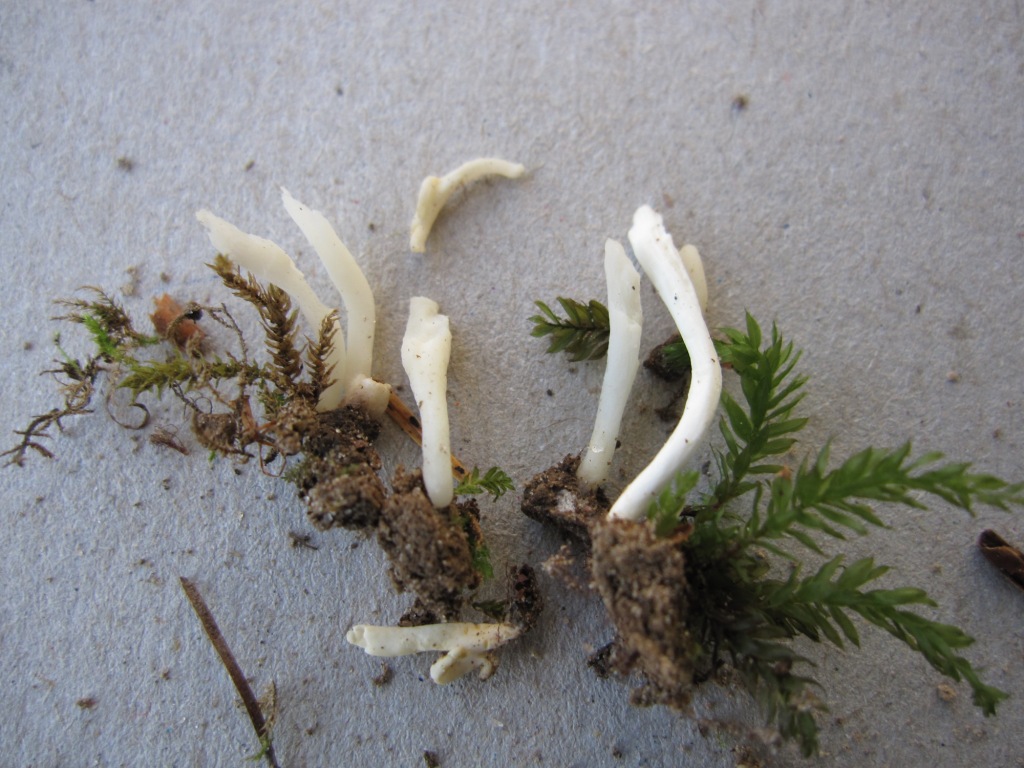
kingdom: Fungi
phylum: Basidiomycota
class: Agaricomycetes
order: Agaricales
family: Clavariaceae
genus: Clavaria
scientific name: Clavaria falcata
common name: hvid køllesvamp
